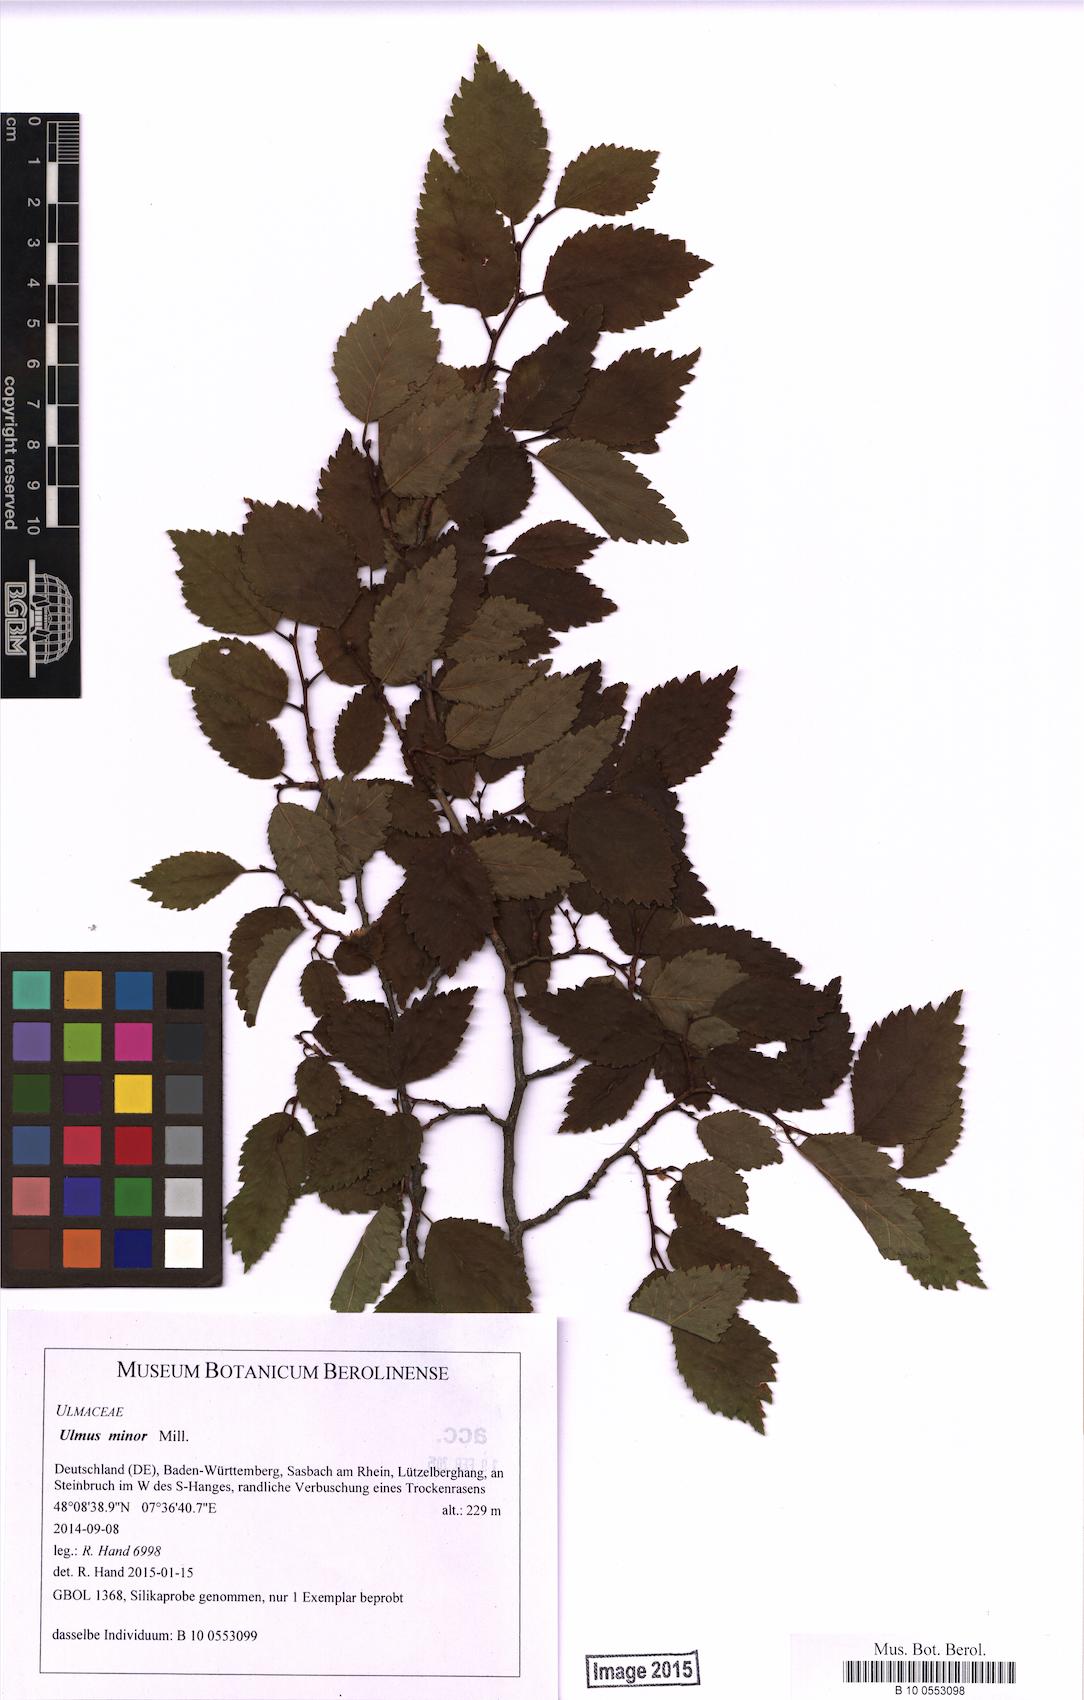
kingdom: Plantae
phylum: Tracheophyta
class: Magnoliopsida
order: Rosales
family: Ulmaceae
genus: Ulmus
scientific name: Ulmus minor
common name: Small-leaved elm
